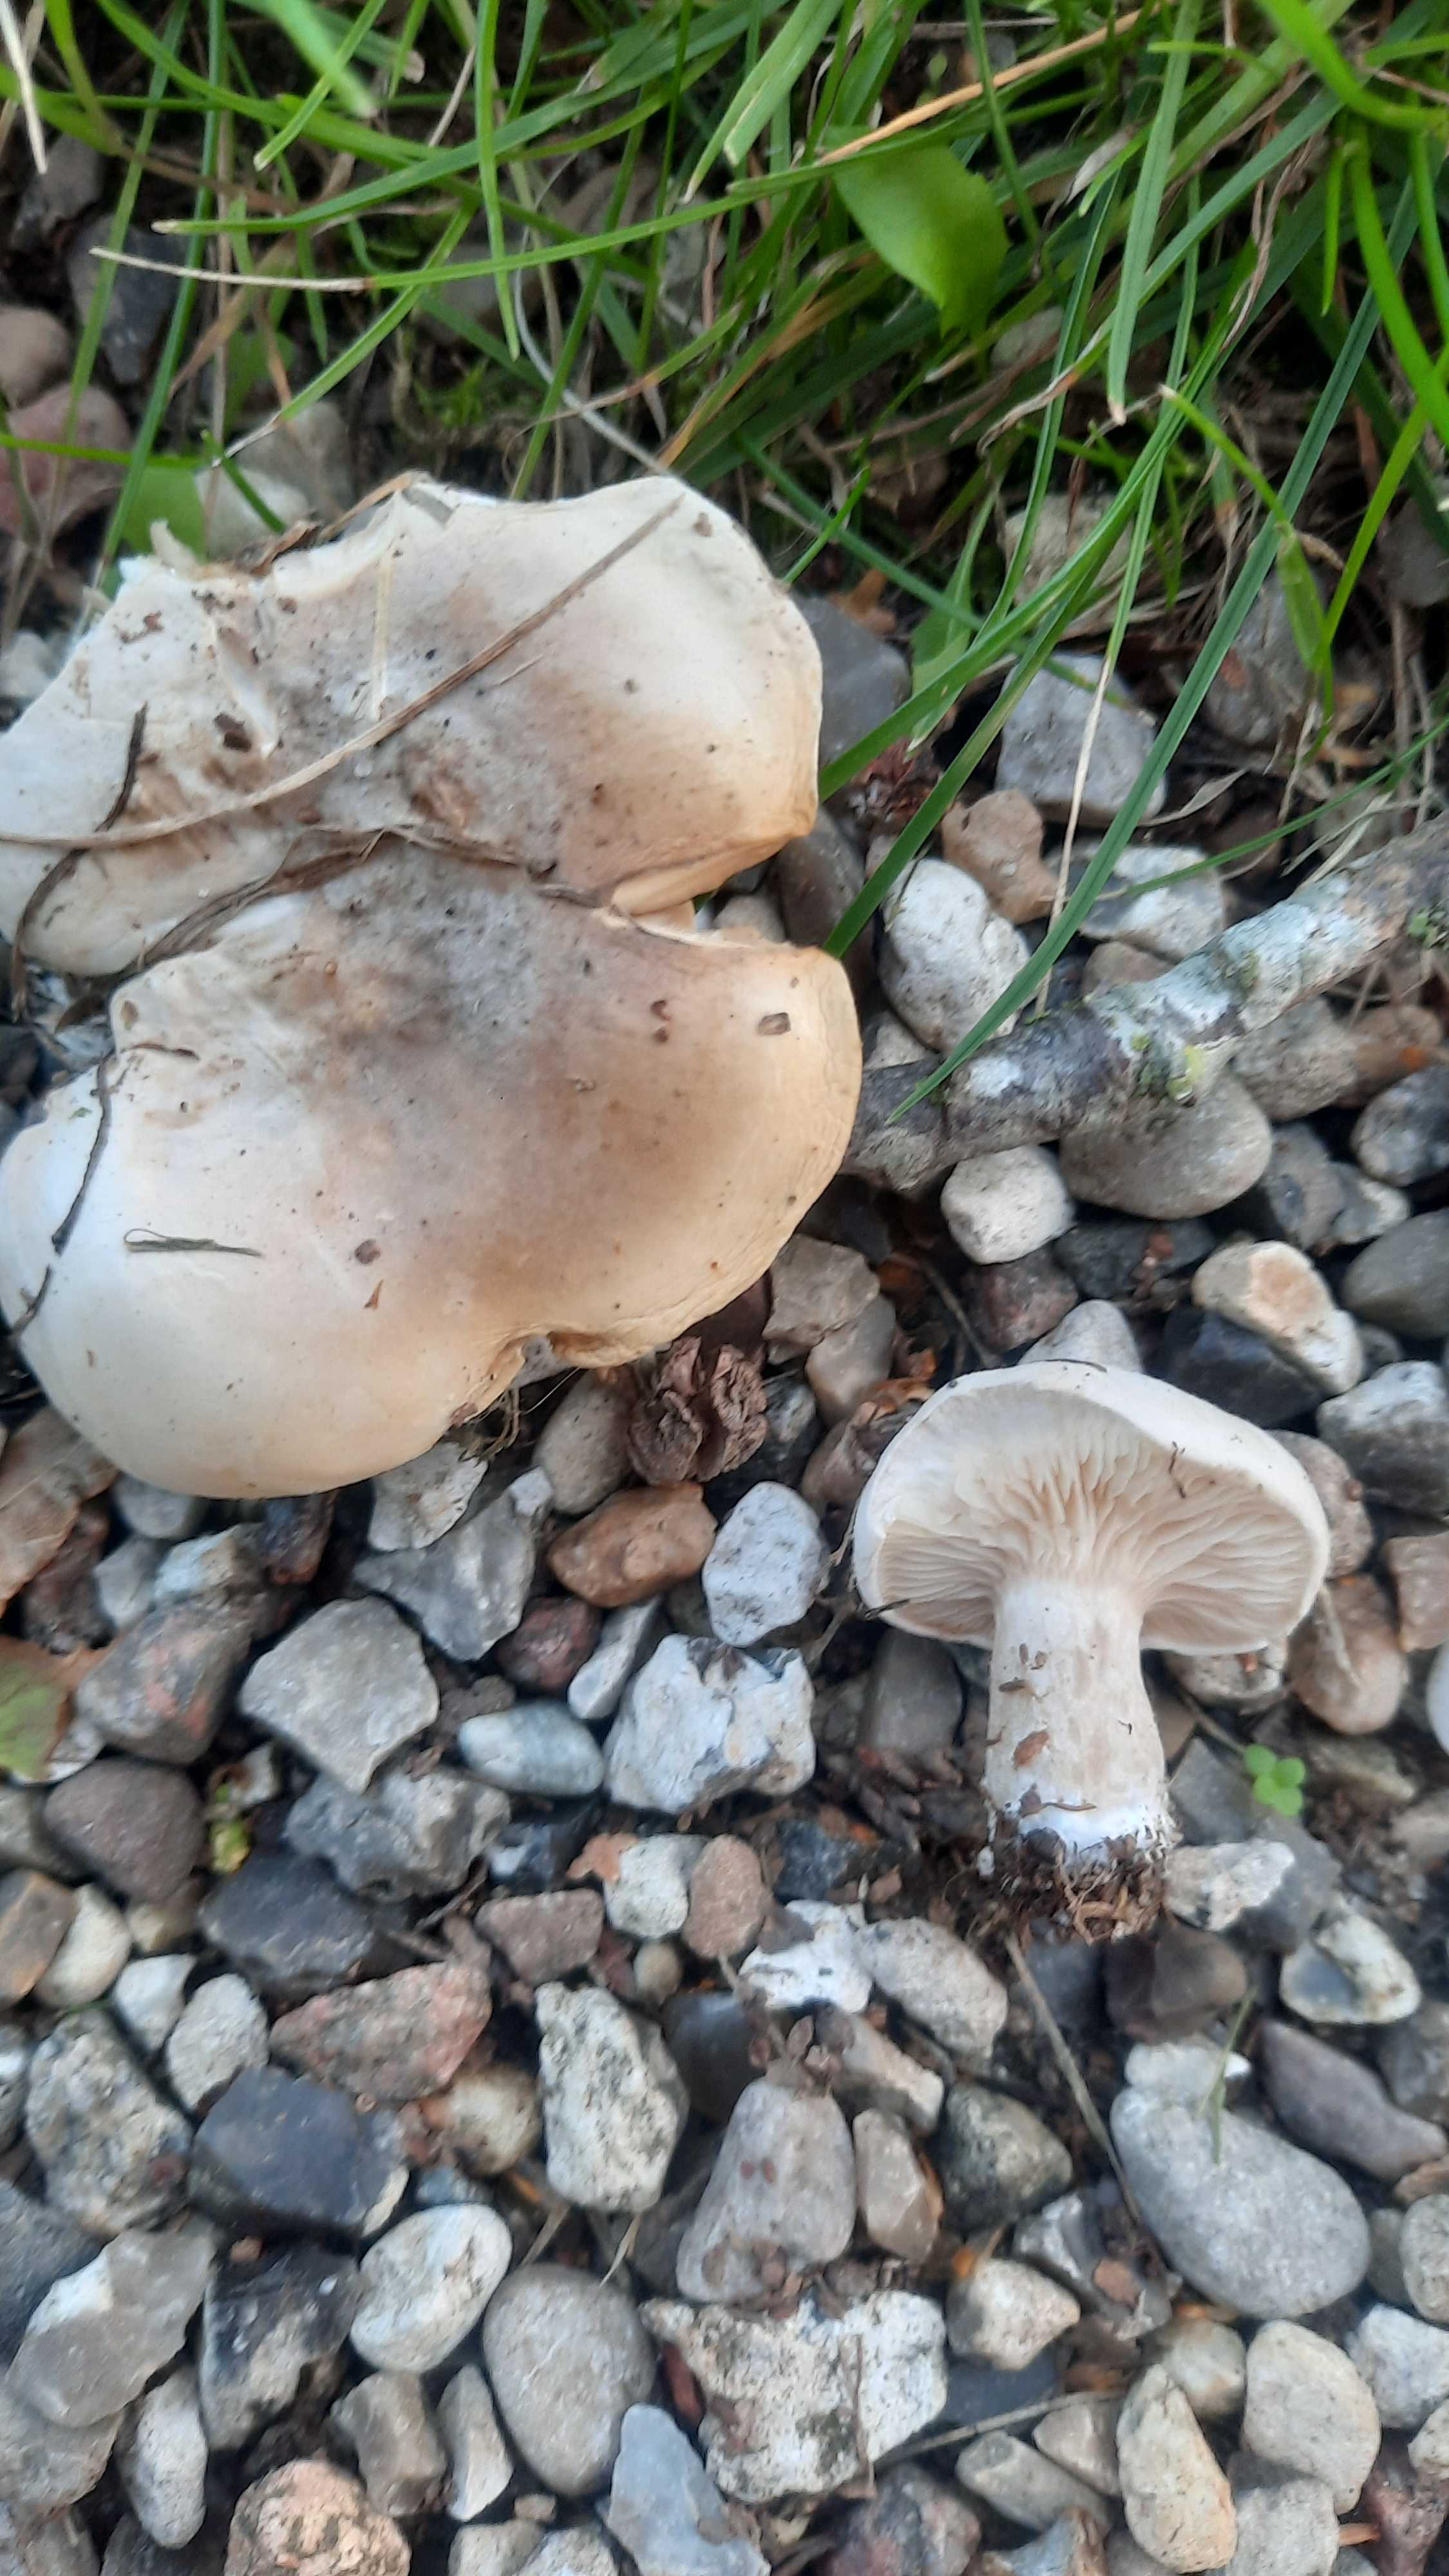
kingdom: Fungi
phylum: Basidiomycota
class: Agaricomycetes
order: Agaricales
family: Entolomataceae
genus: Clitopilus
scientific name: Clitopilus prunulus
